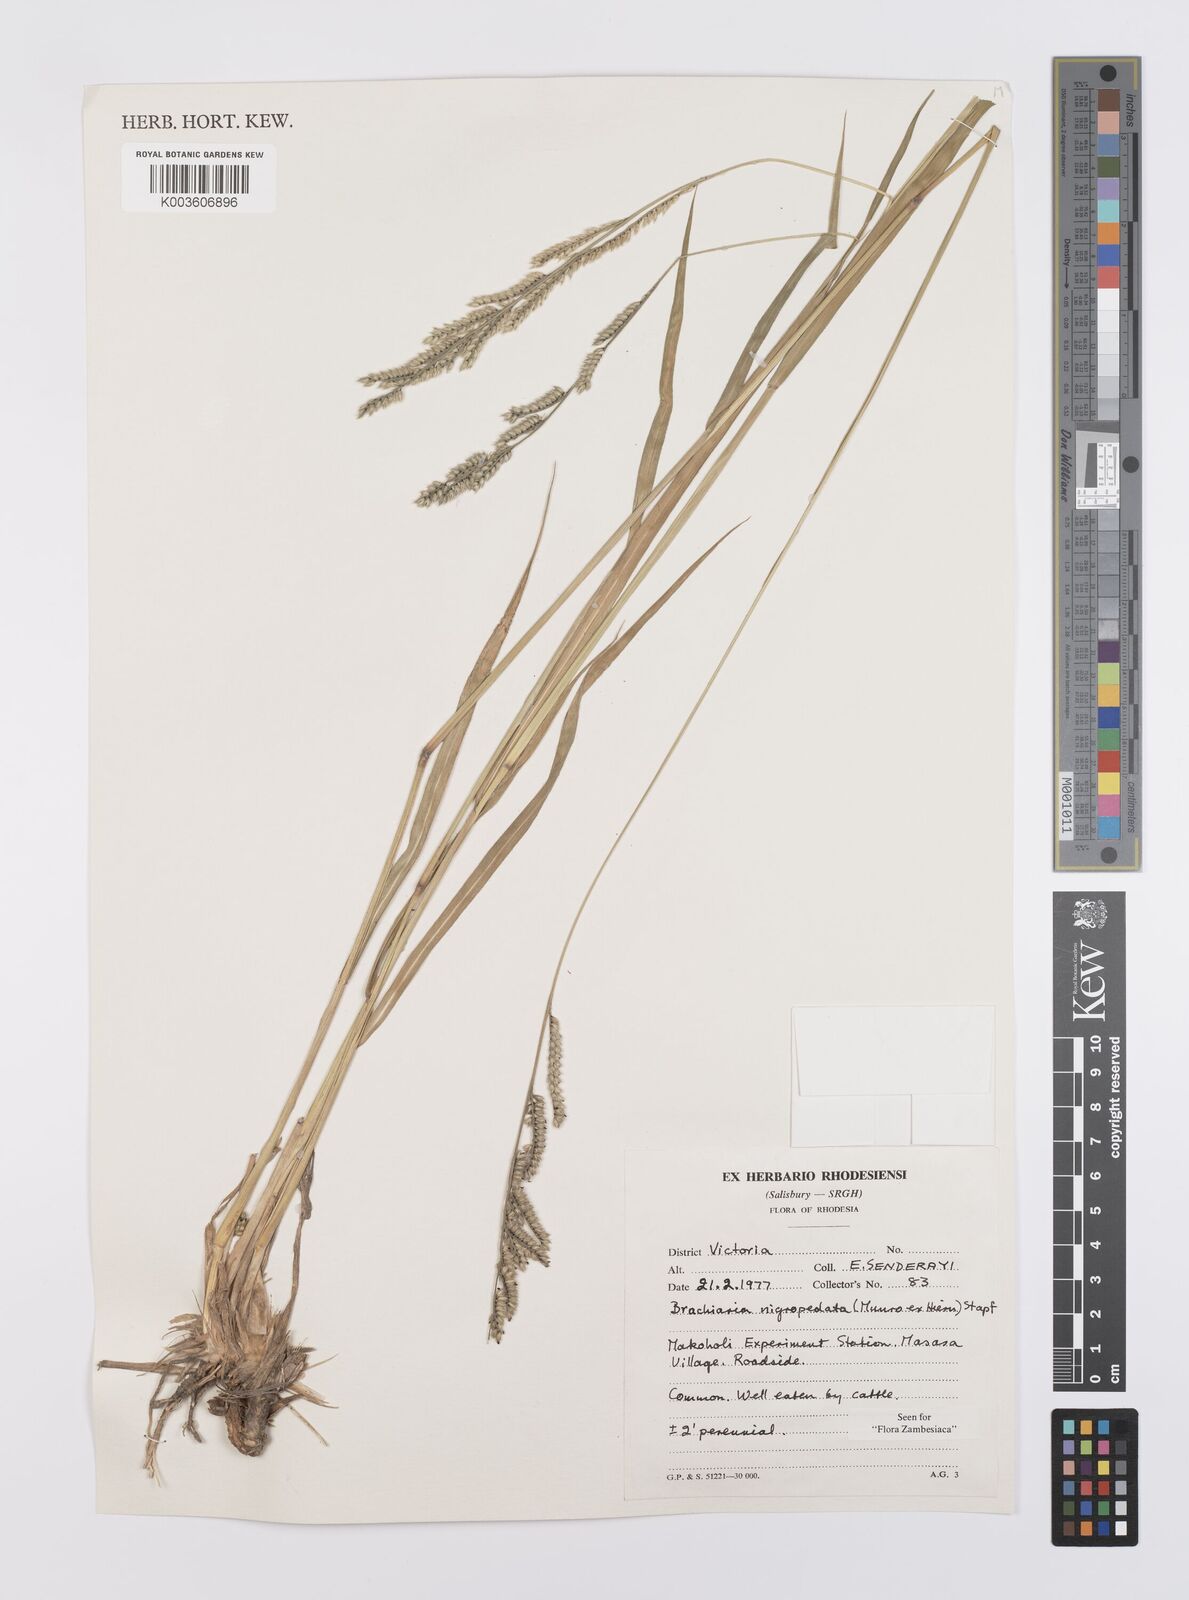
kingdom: Plantae
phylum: Tracheophyta
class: Liliopsida
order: Poales
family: Poaceae
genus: Urochloa
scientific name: Urochloa nigropedata
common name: Spotted signal grass
